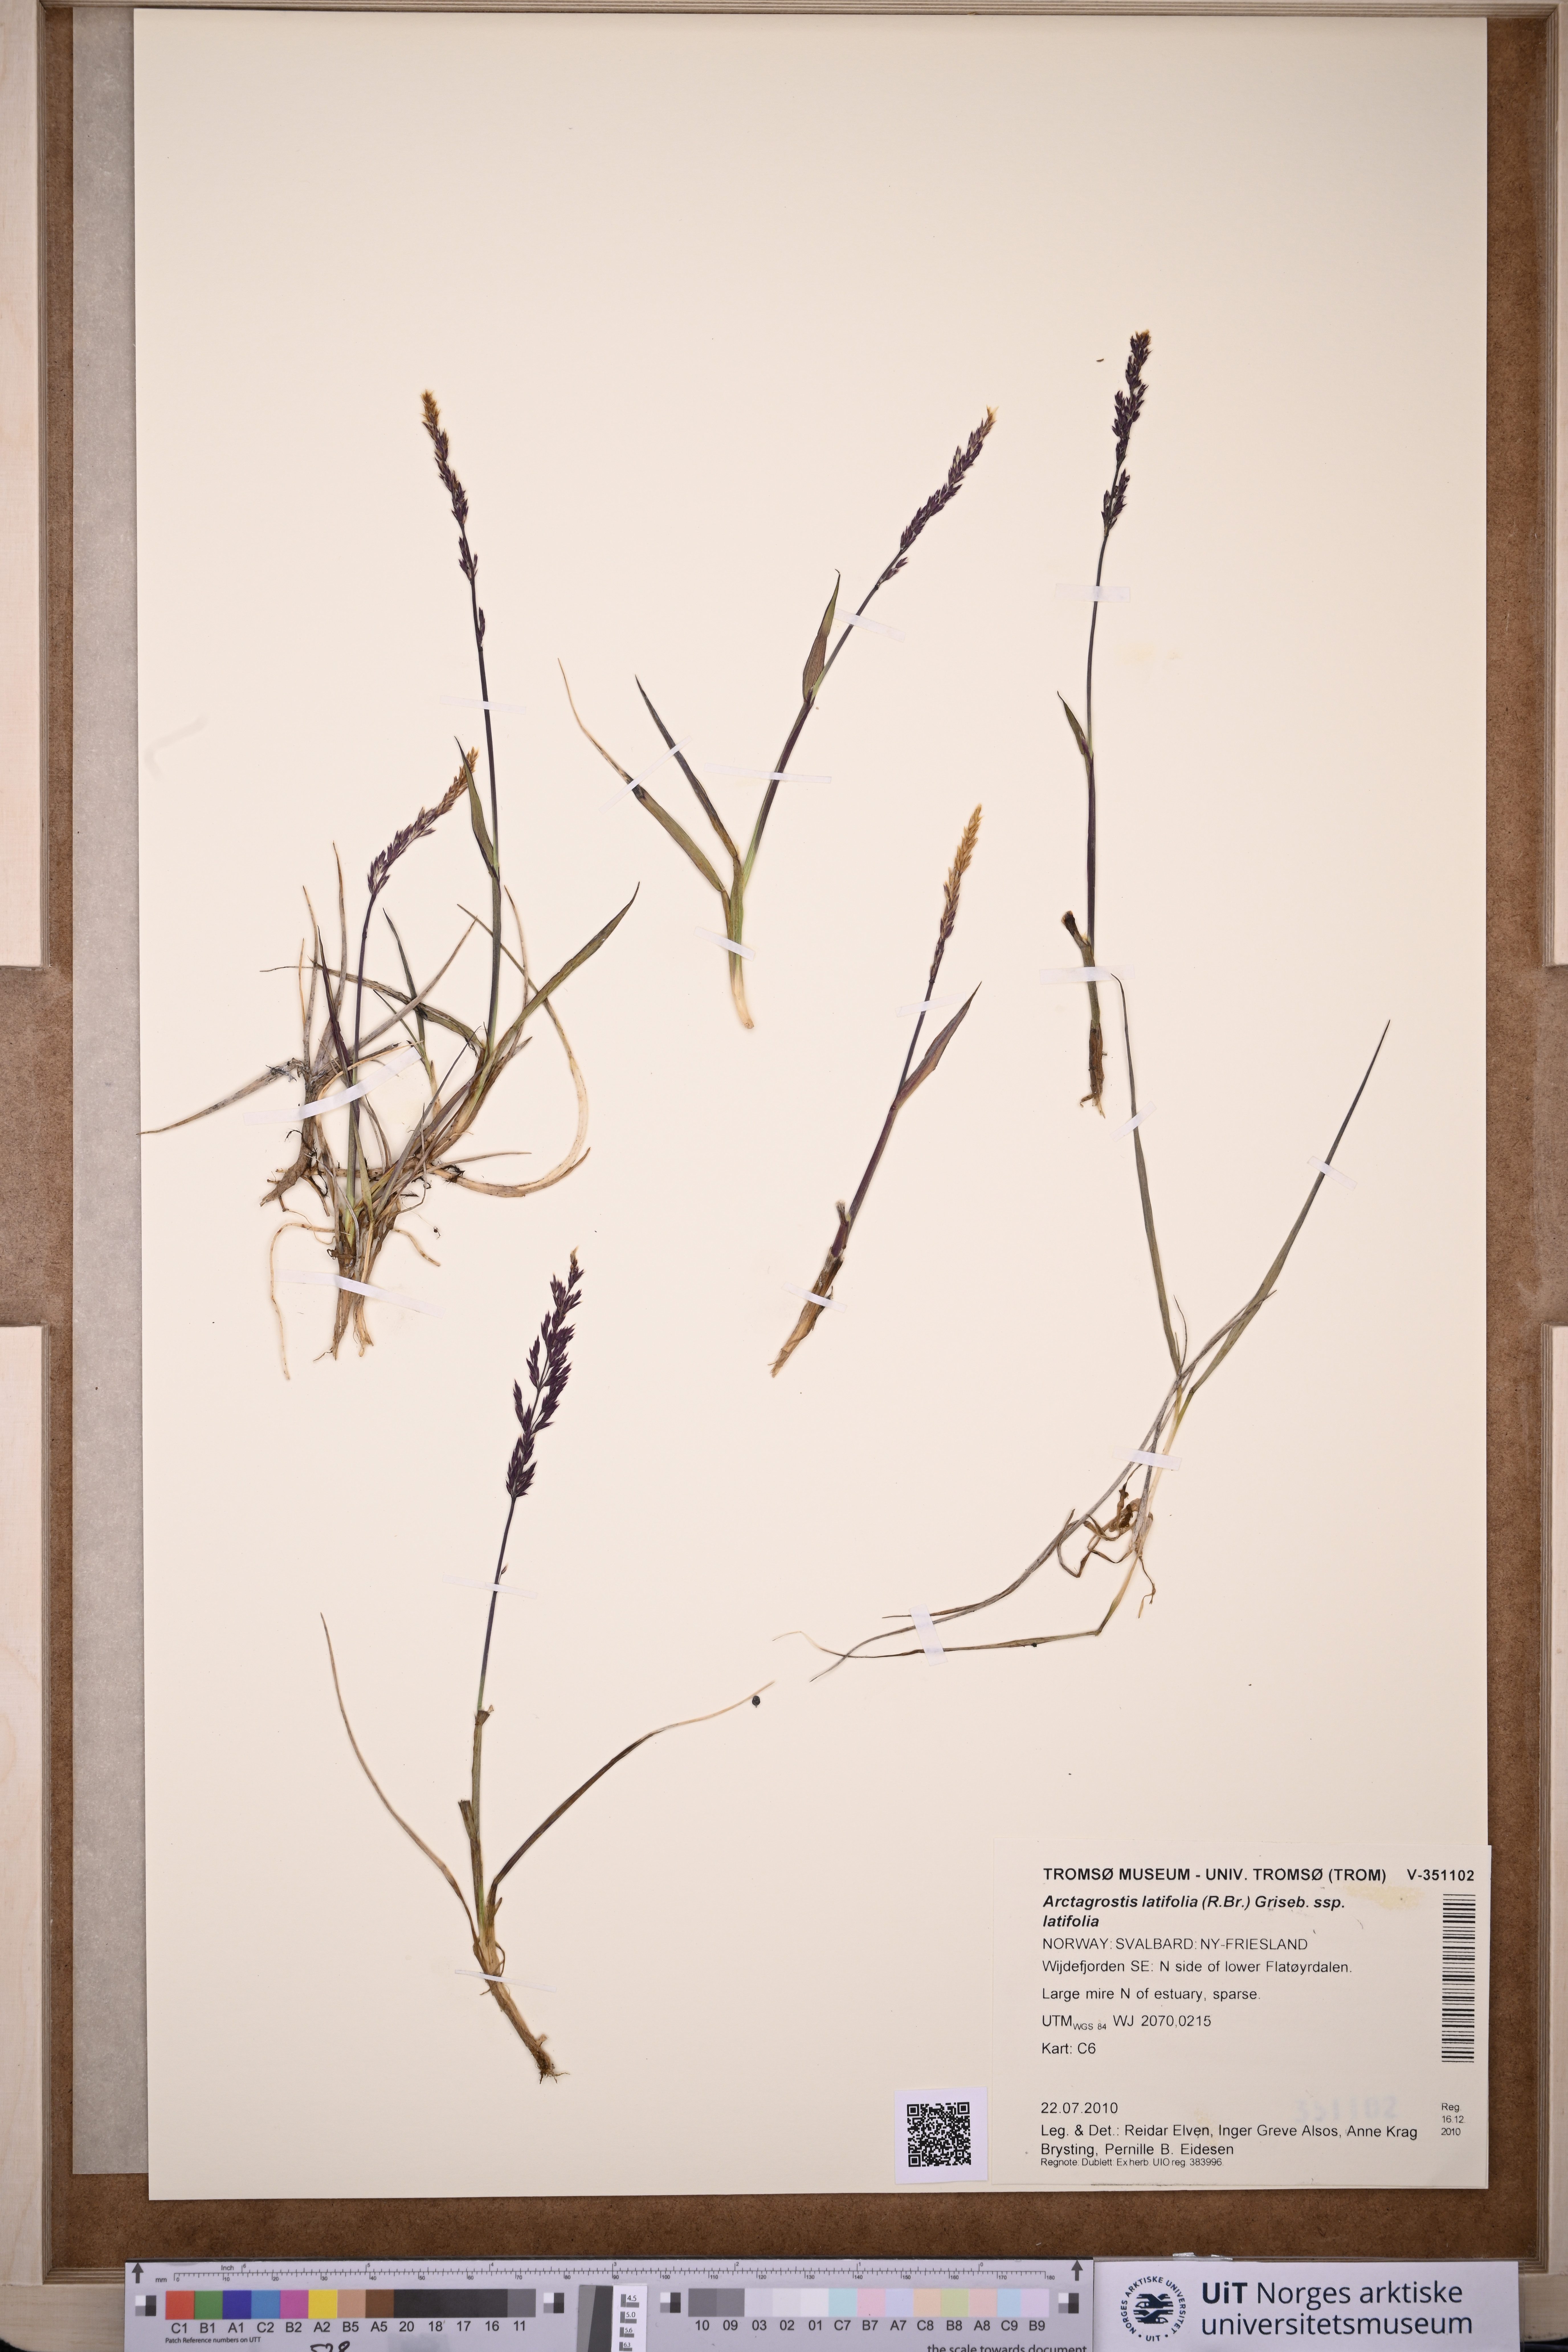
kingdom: Plantae
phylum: Tracheophyta
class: Liliopsida
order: Poales
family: Poaceae
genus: Arctagrostis
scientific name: Arctagrostis latifolia
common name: Arctic grass
